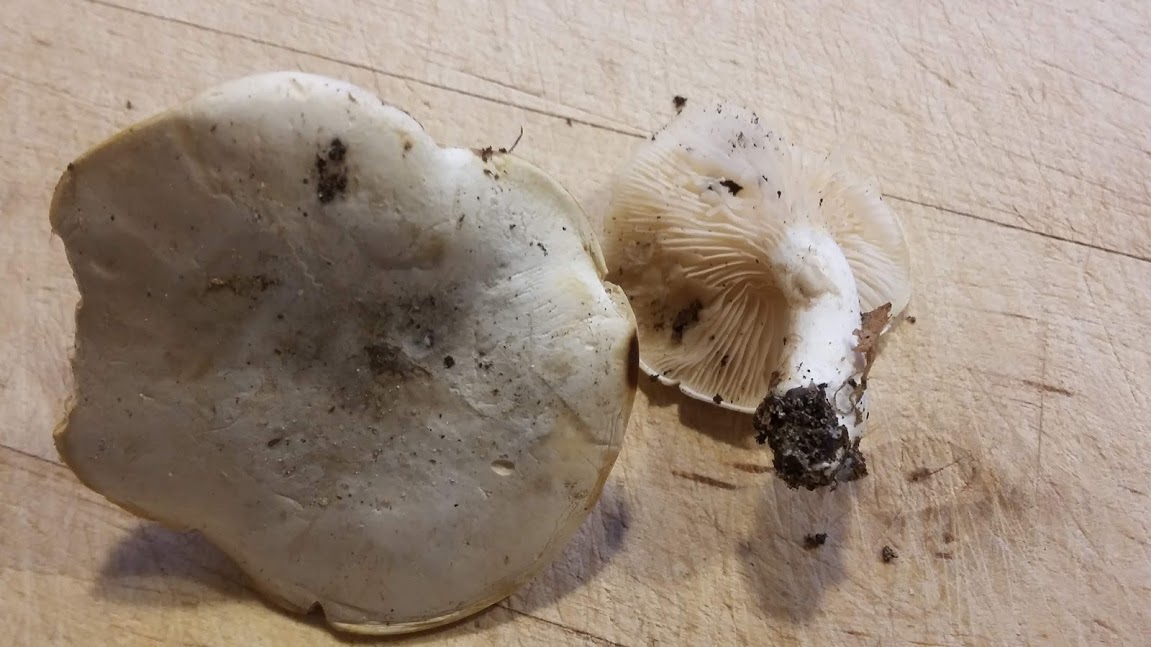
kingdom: Fungi
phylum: Basidiomycota
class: Agaricomycetes
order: Agaricales
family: Entolomataceae
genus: Clitopilus
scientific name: Clitopilus prunulus
